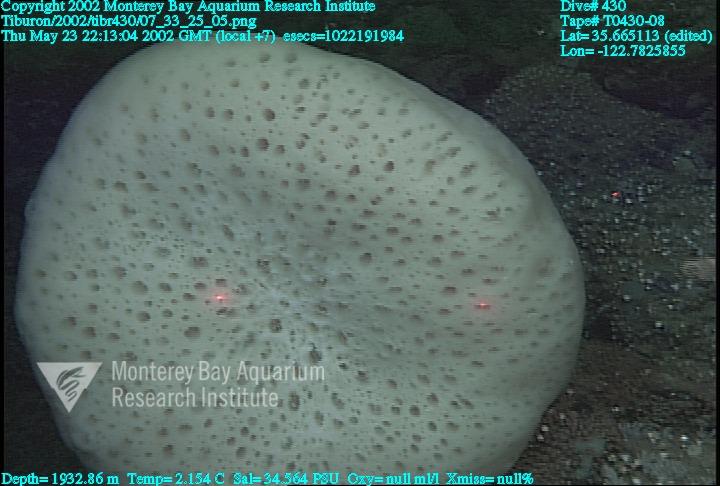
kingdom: Animalia
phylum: Porifera
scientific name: Porifera
